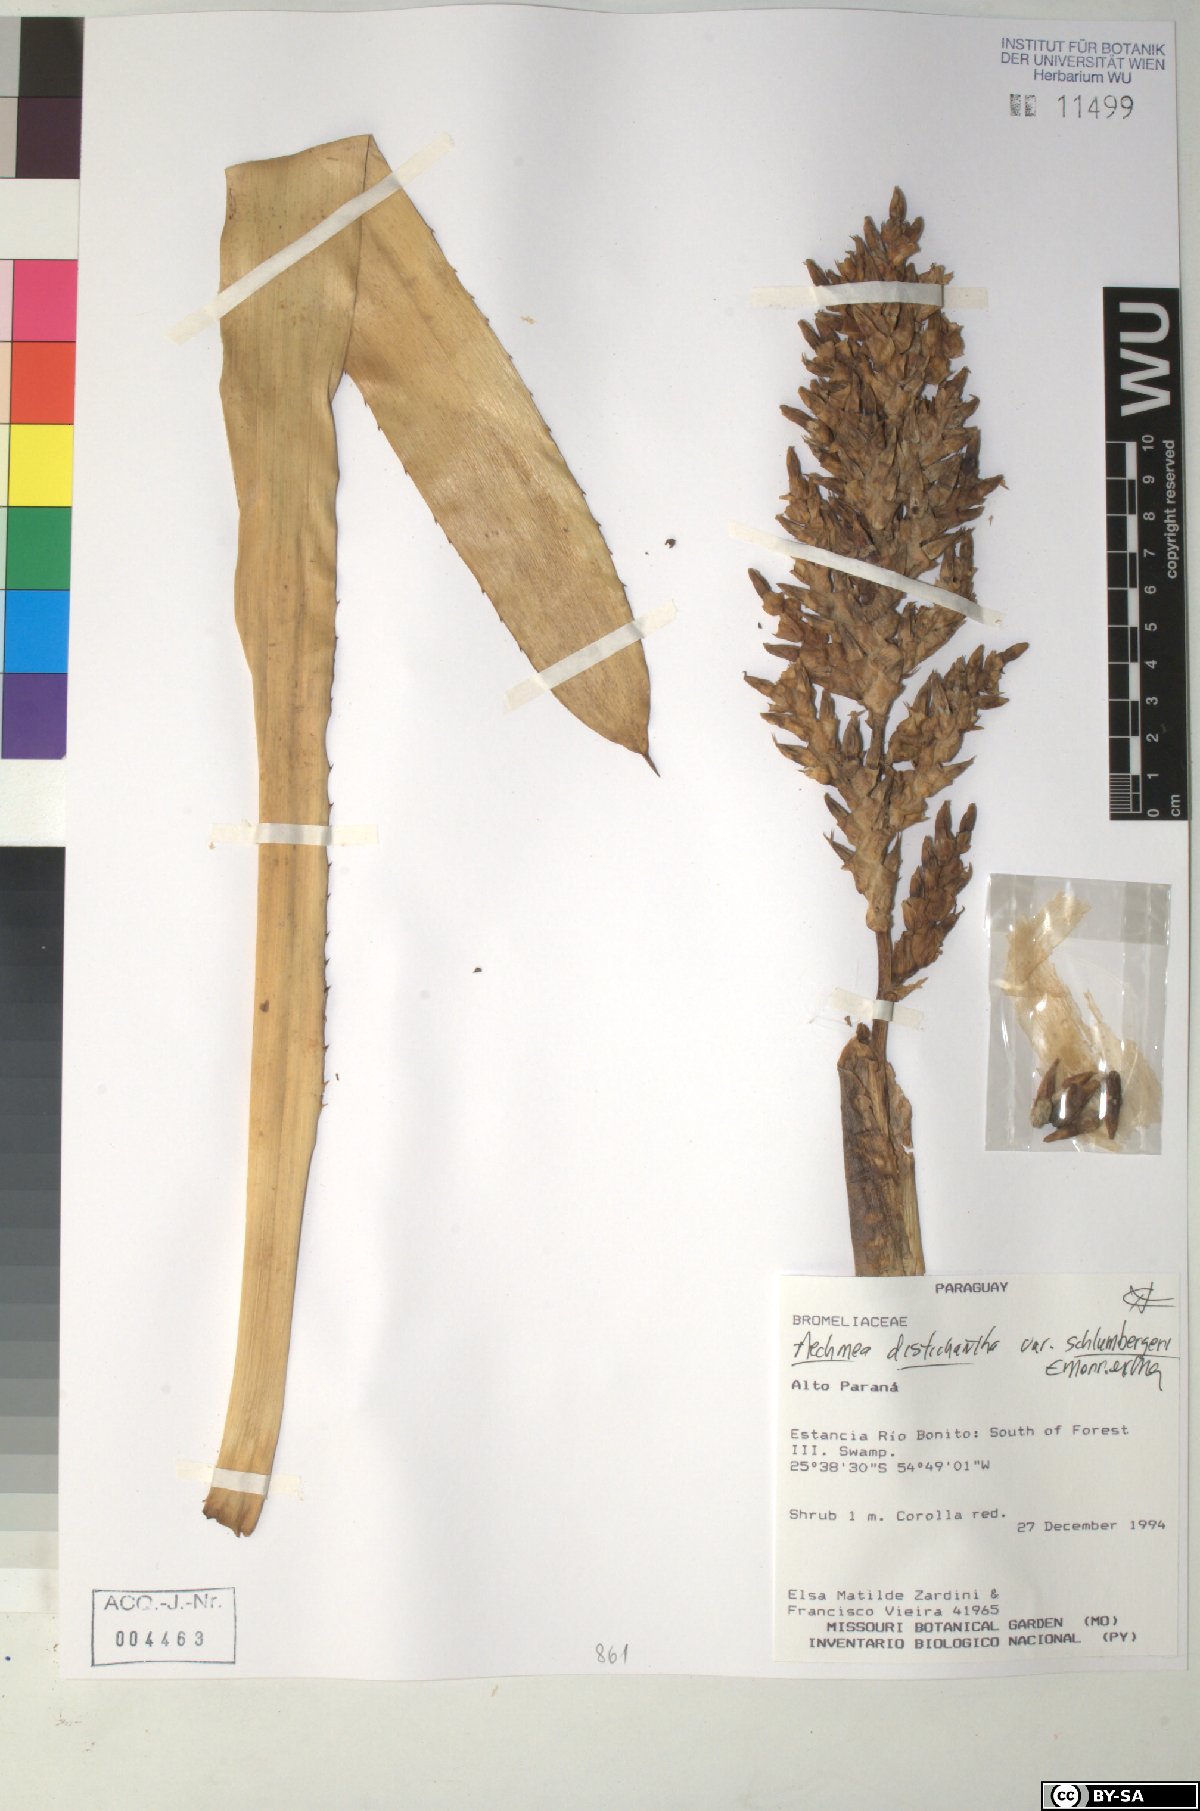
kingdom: Plantae
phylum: Tracheophyta
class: Liliopsida
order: Poales
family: Bromeliaceae
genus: Aechmea
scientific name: Aechmea distichantha
